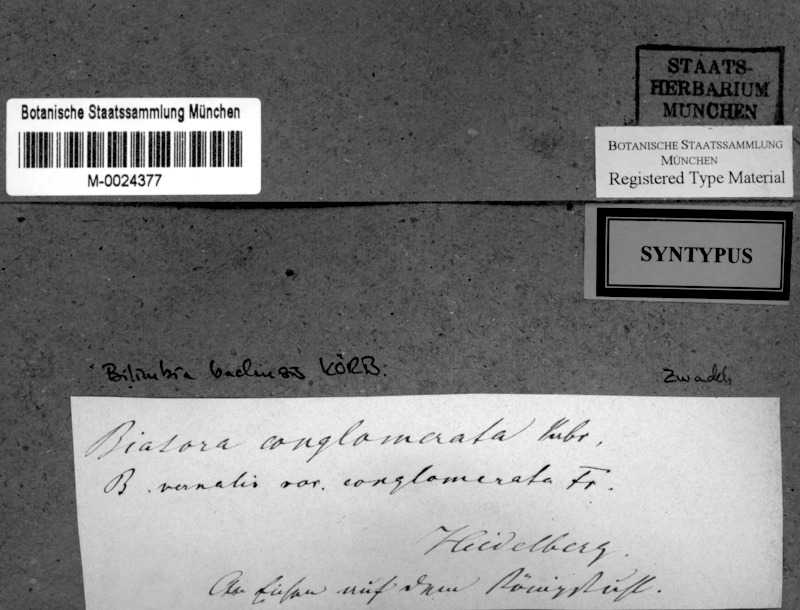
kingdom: Fungi
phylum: Ascomycota
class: Lecanoromycetes
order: Lecanorales
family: Ramalinaceae
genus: Bacidia
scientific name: Bacidia badensis
